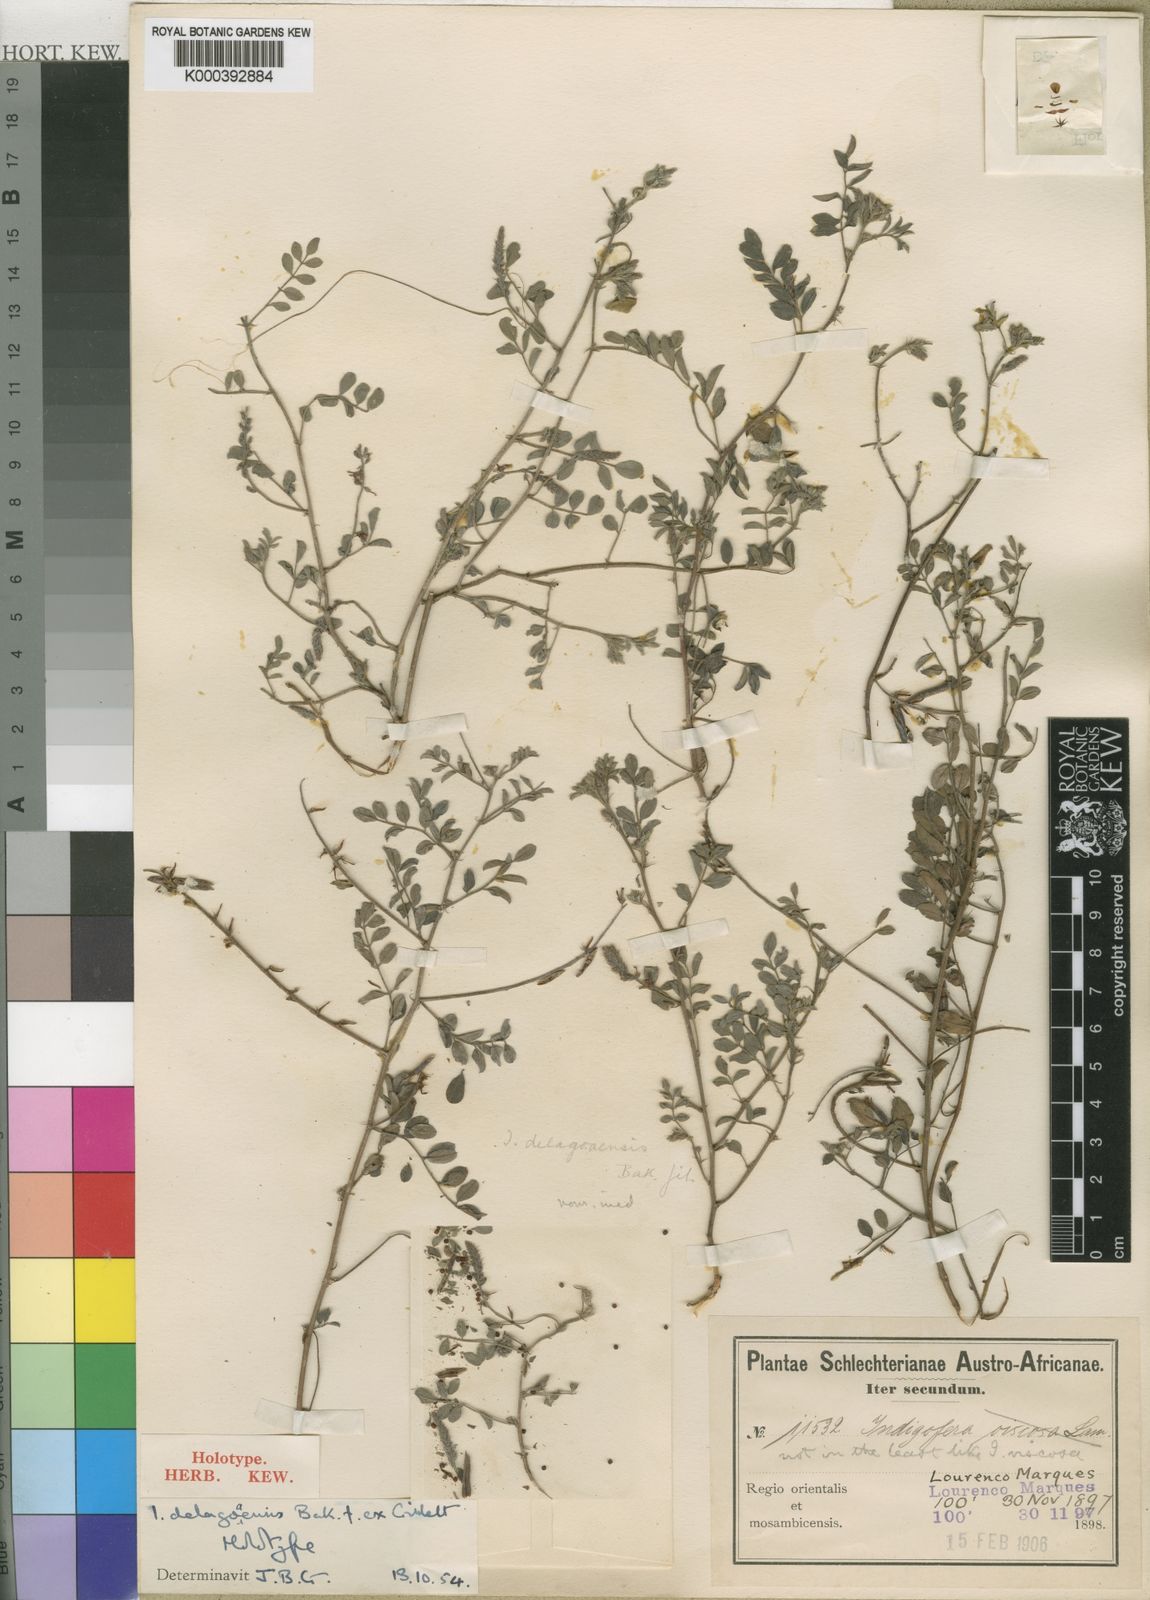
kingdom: Plantae
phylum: Tracheophyta
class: Magnoliopsida
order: Fabales
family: Fabaceae
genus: Indigofera
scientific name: Indigofera delagoaensis ex
